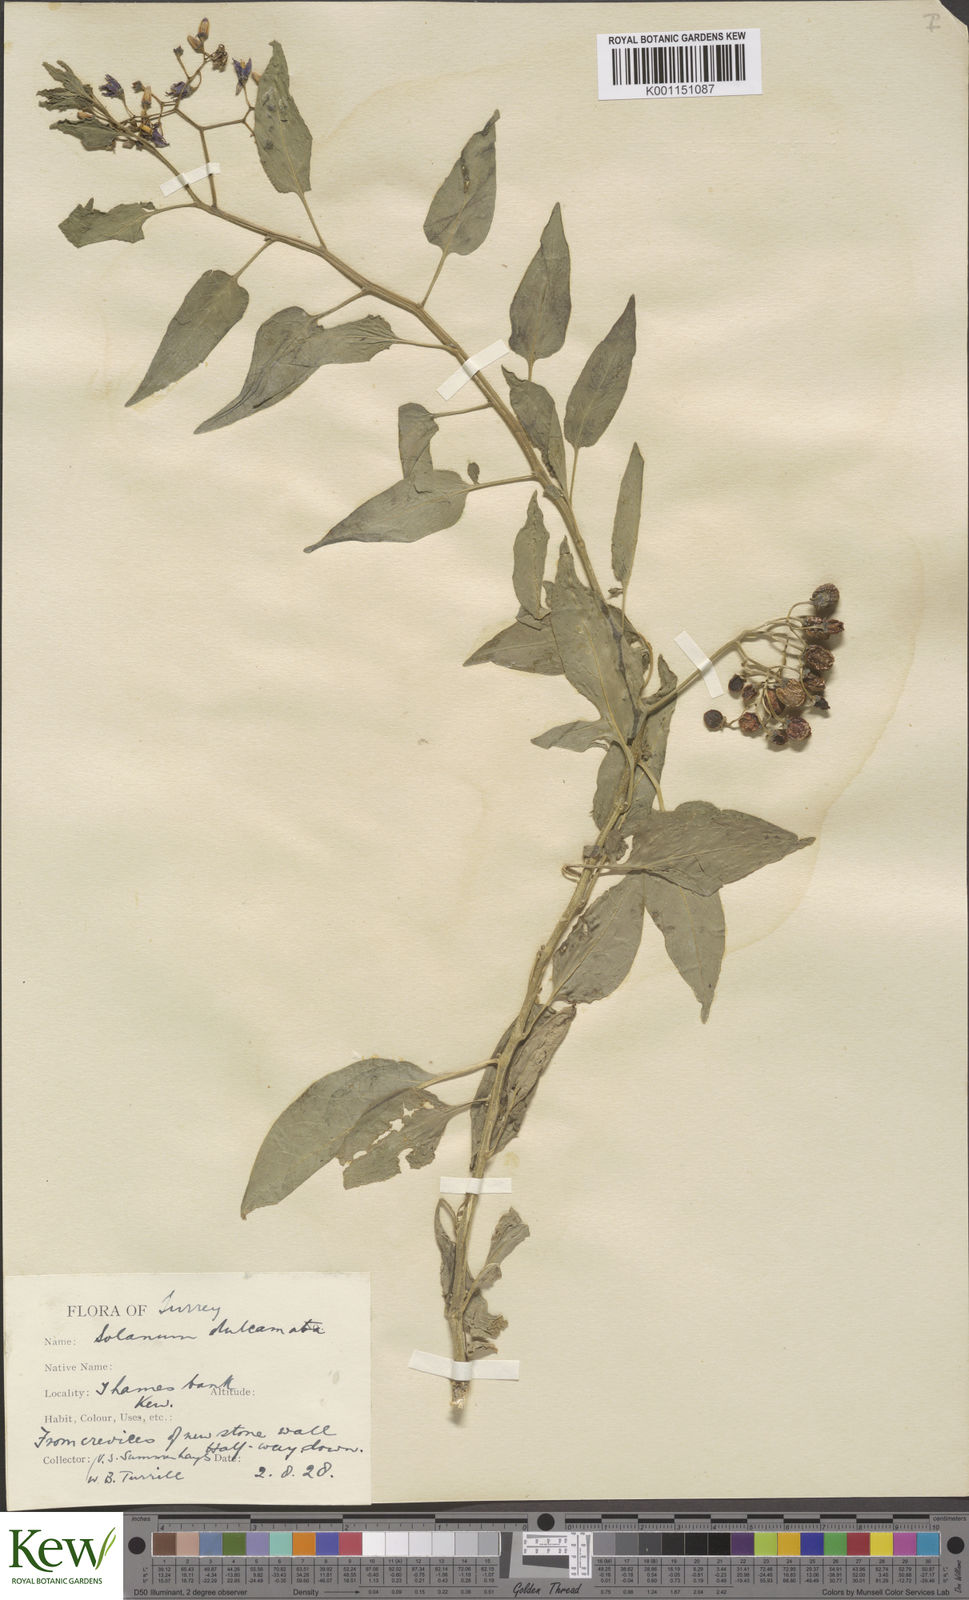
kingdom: Plantae
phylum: Tracheophyta
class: Magnoliopsida
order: Solanales
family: Solanaceae
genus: Solanum
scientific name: Solanum dulcamara
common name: Climbing nightshade
